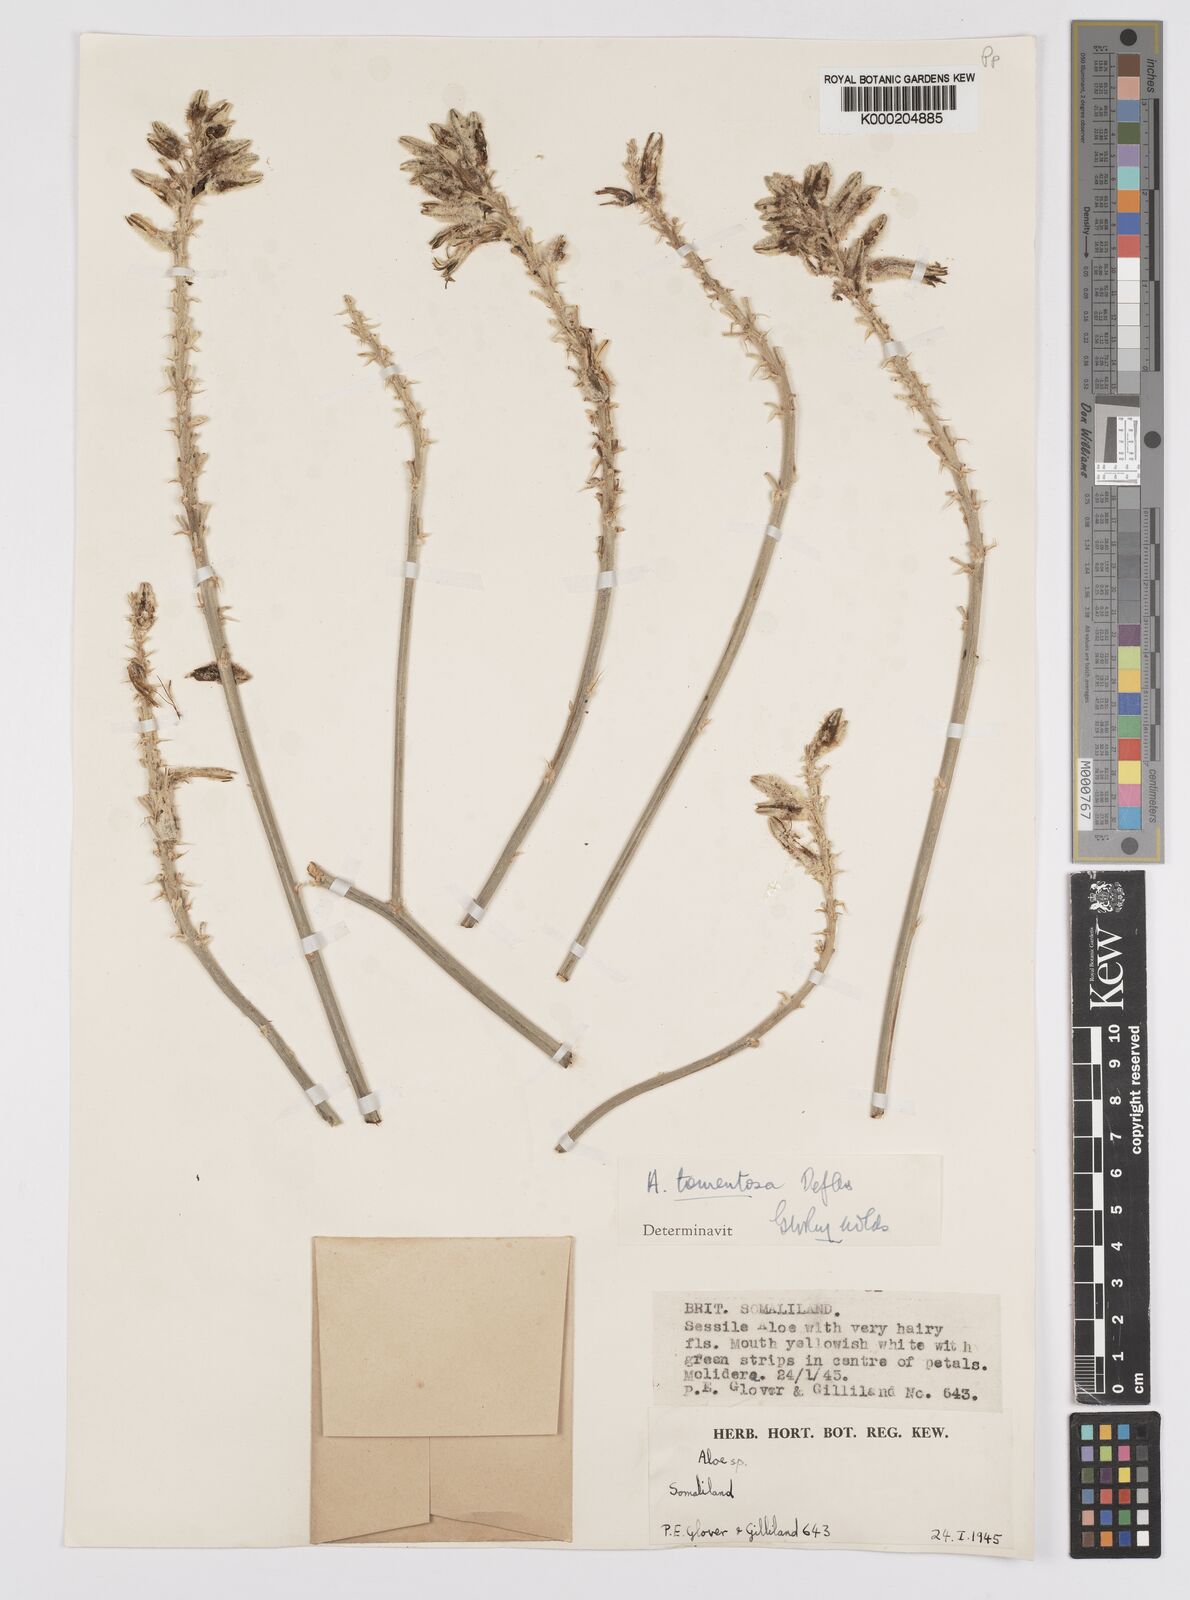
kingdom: Plantae
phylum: Tracheophyta
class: Liliopsida
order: Asparagales
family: Asphodelaceae
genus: Aloe
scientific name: Aloe molederana
